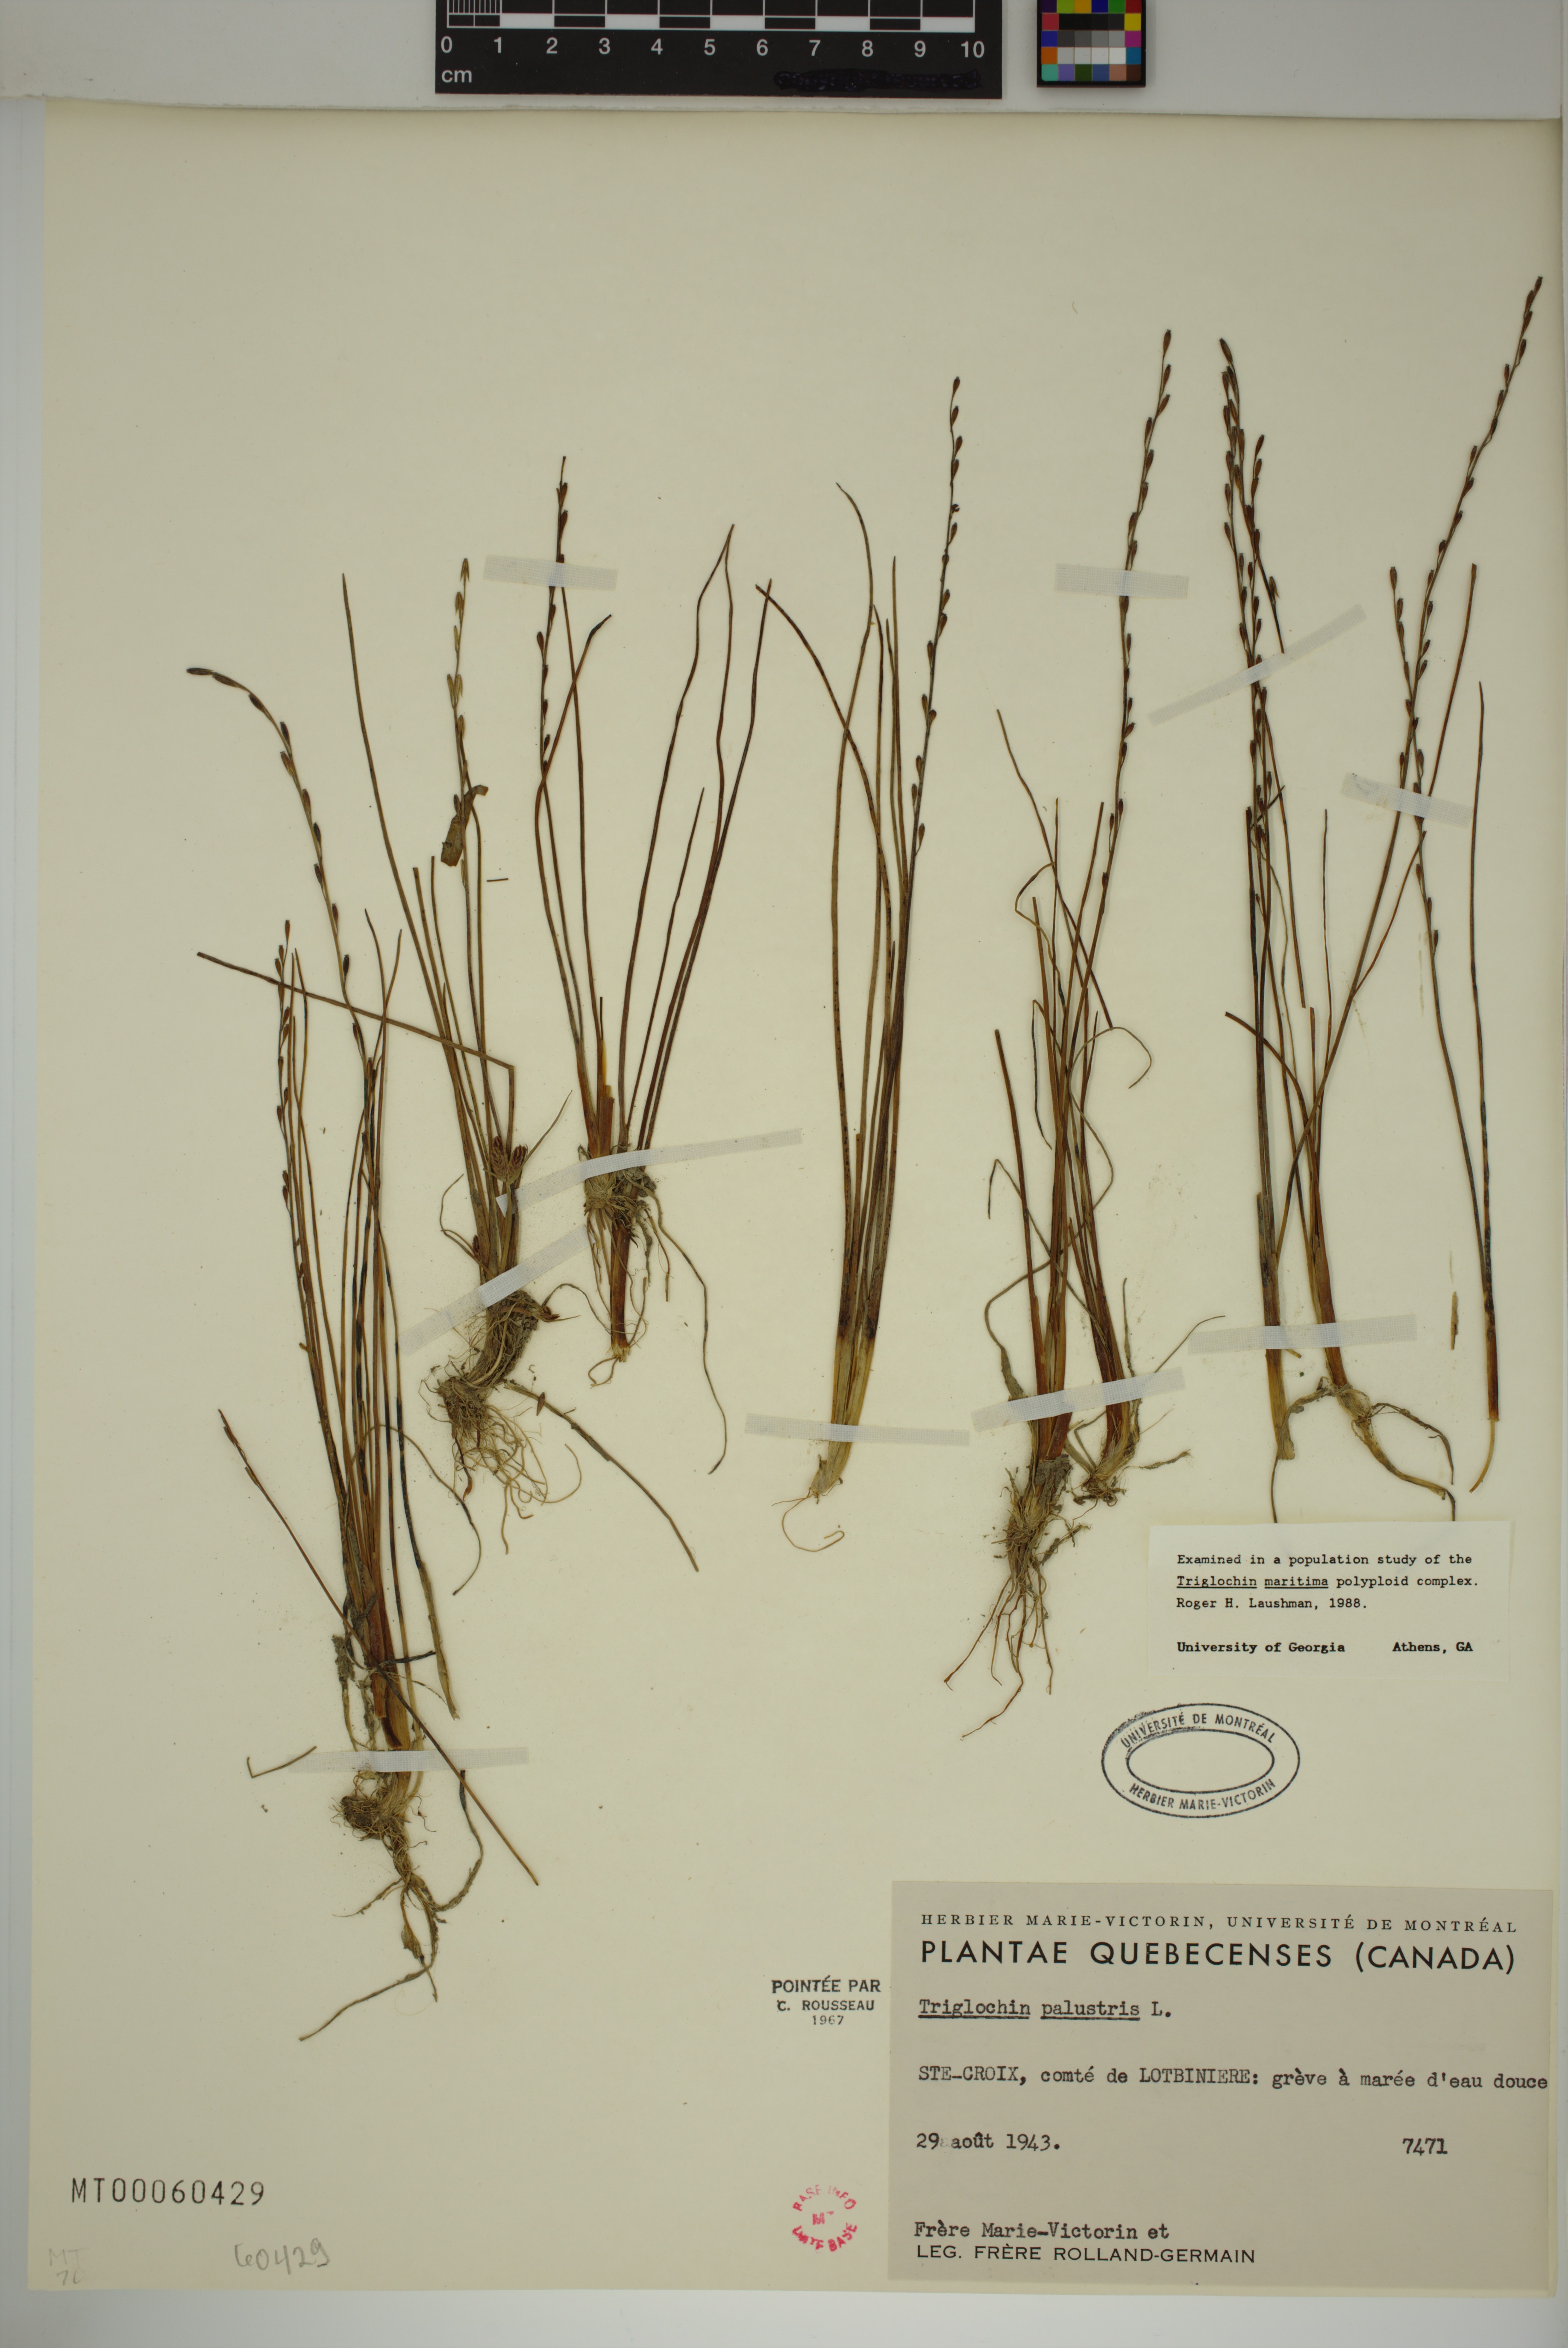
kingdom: Plantae
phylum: Tracheophyta
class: Liliopsida
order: Alismatales
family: Juncaginaceae
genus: Triglochin
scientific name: Triglochin palustris
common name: Marsh arrowgrass
